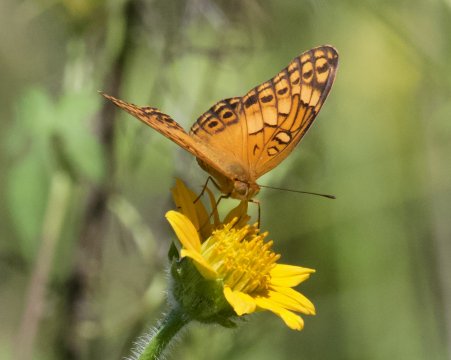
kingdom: Animalia
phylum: Arthropoda
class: Insecta
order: Lepidoptera
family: Nymphalidae
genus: Euptoieta
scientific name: Euptoieta hegesia
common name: Mexican Fritillary
